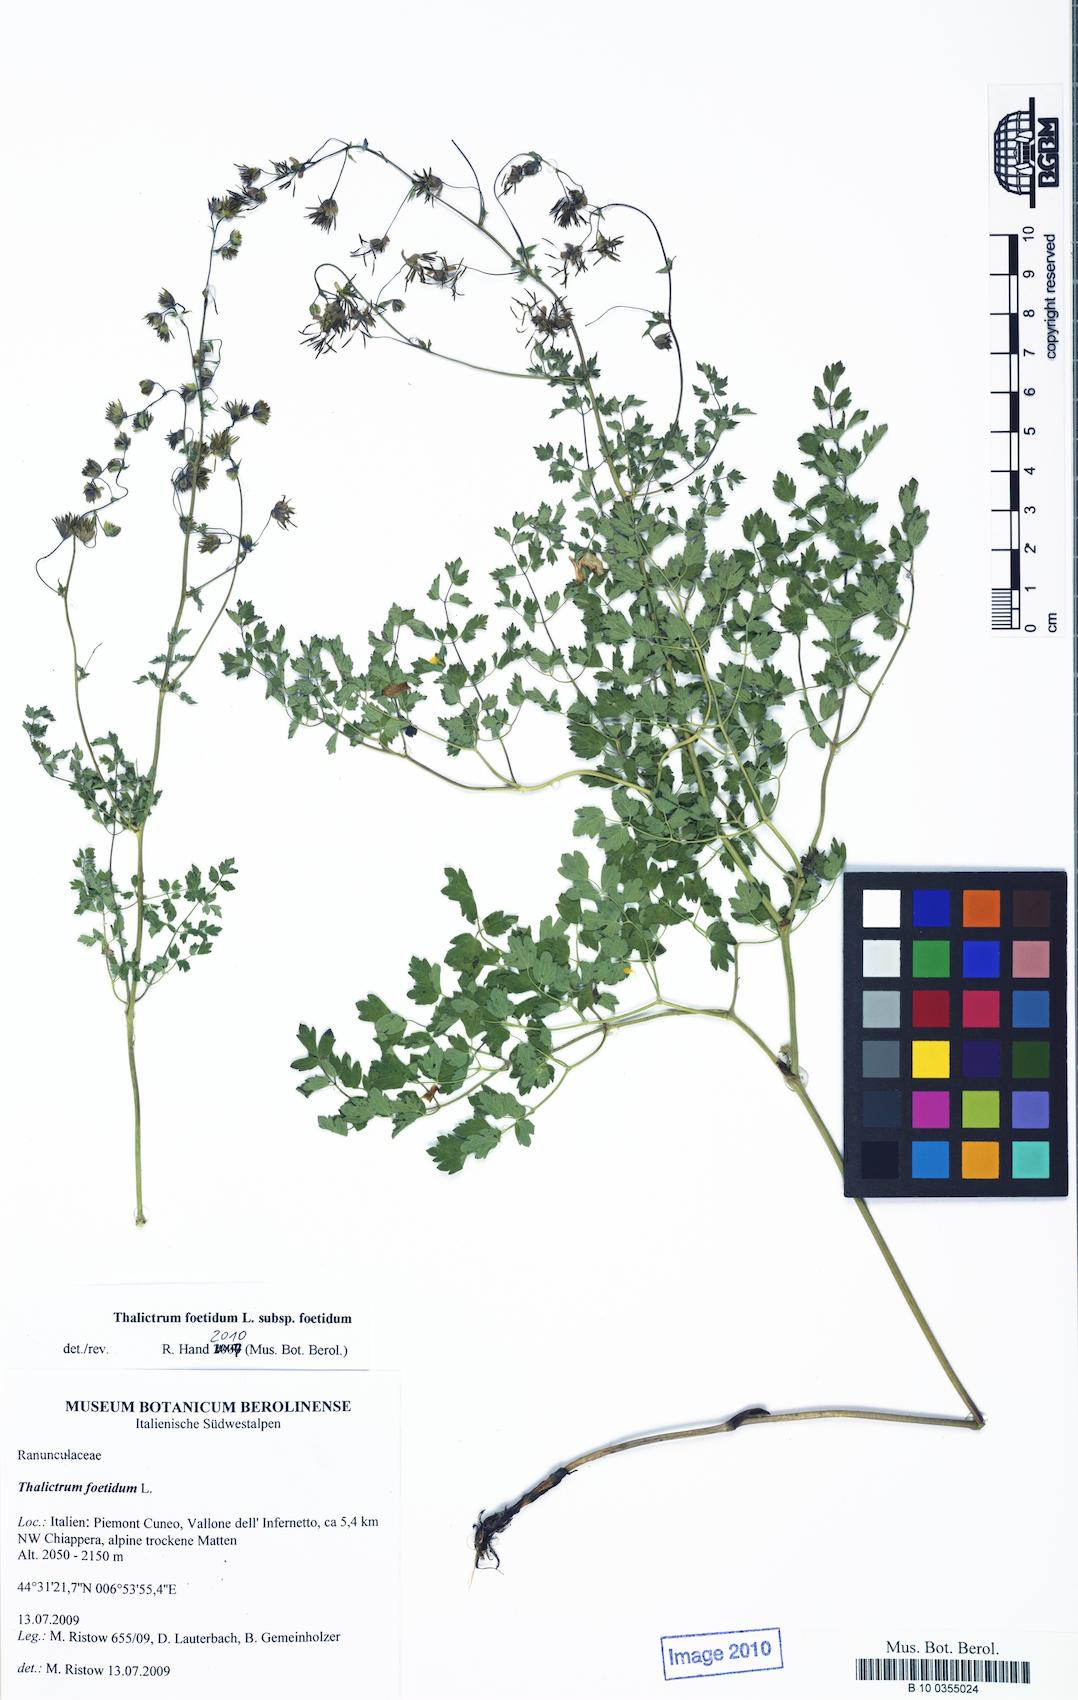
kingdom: Plantae
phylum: Tracheophyta
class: Magnoliopsida
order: Ranunculales
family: Ranunculaceae
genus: Thalictrum
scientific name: Thalictrum foetidum
